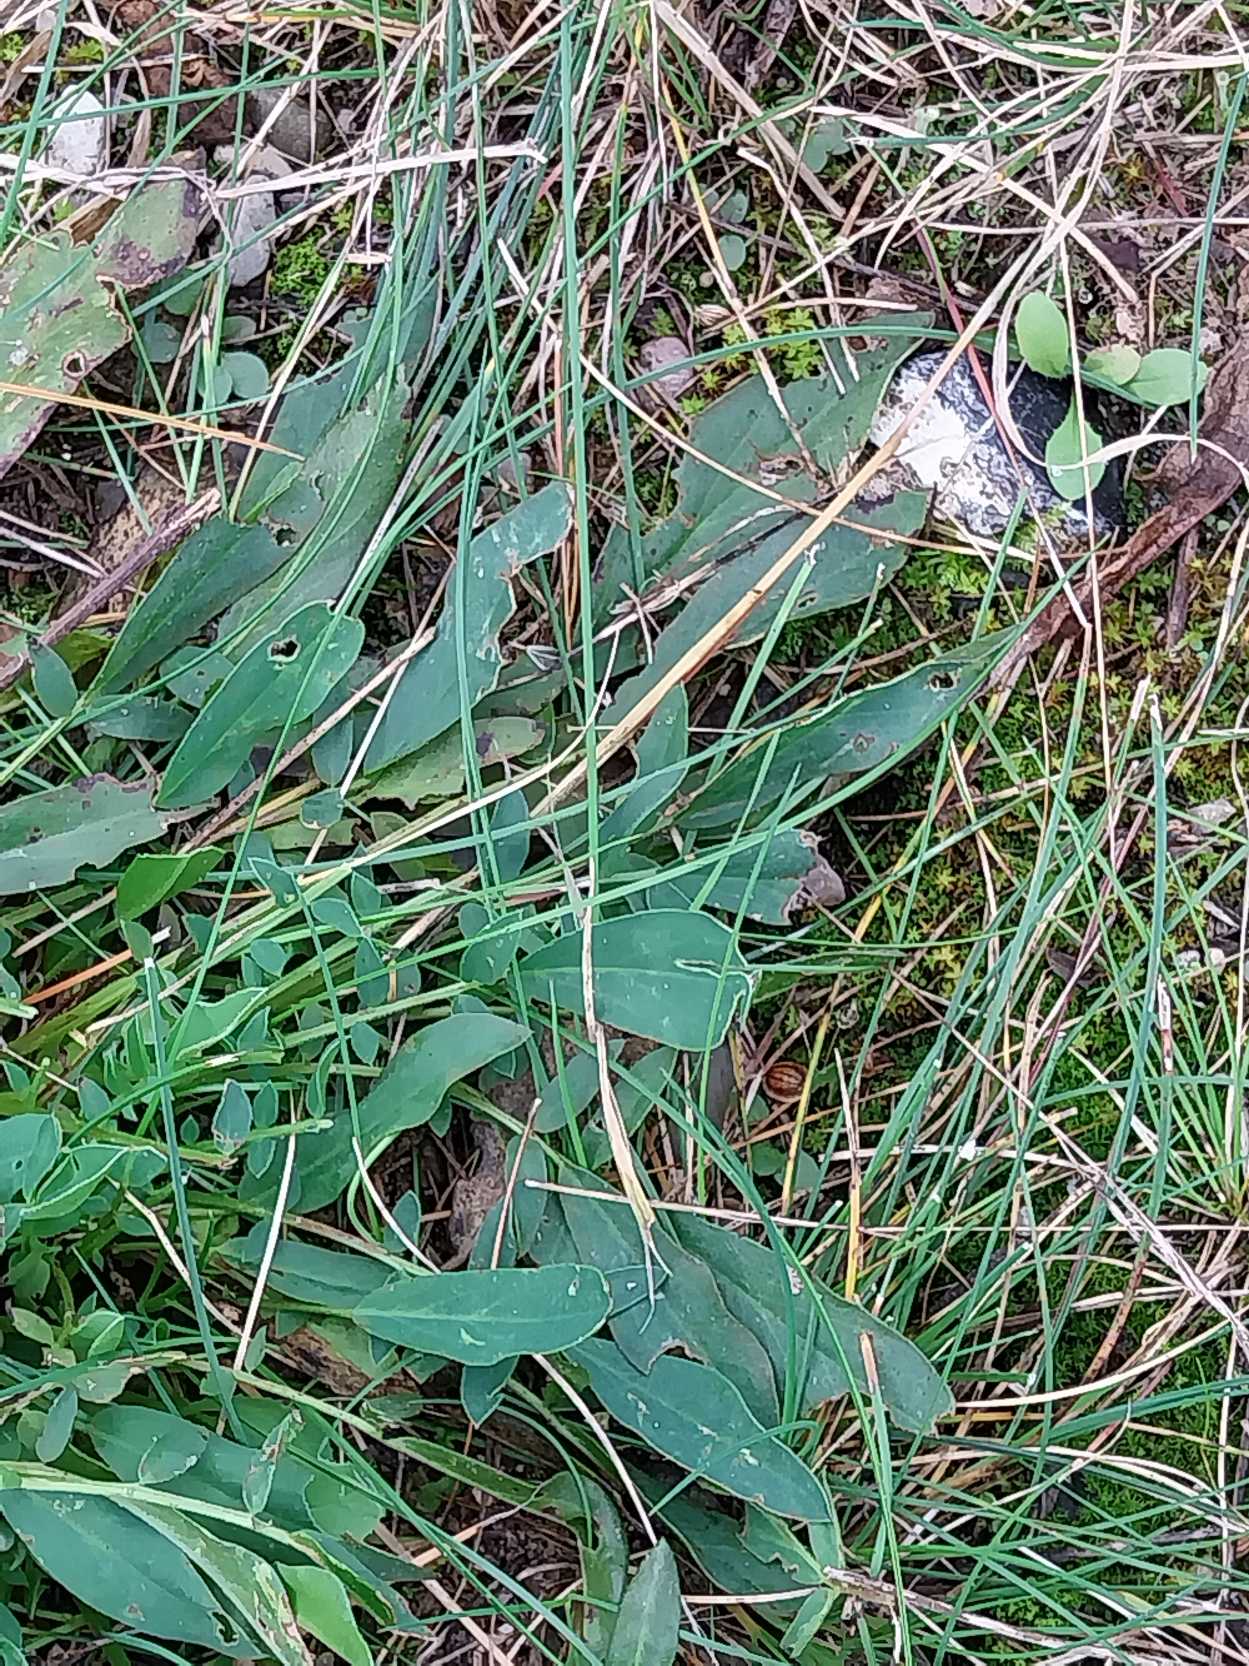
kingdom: Plantae
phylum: Tracheophyta
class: Magnoliopsida
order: Fabales
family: Fabaceae
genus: Anthyllis
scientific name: Anthyllis vulneraria
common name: Rundbælg
